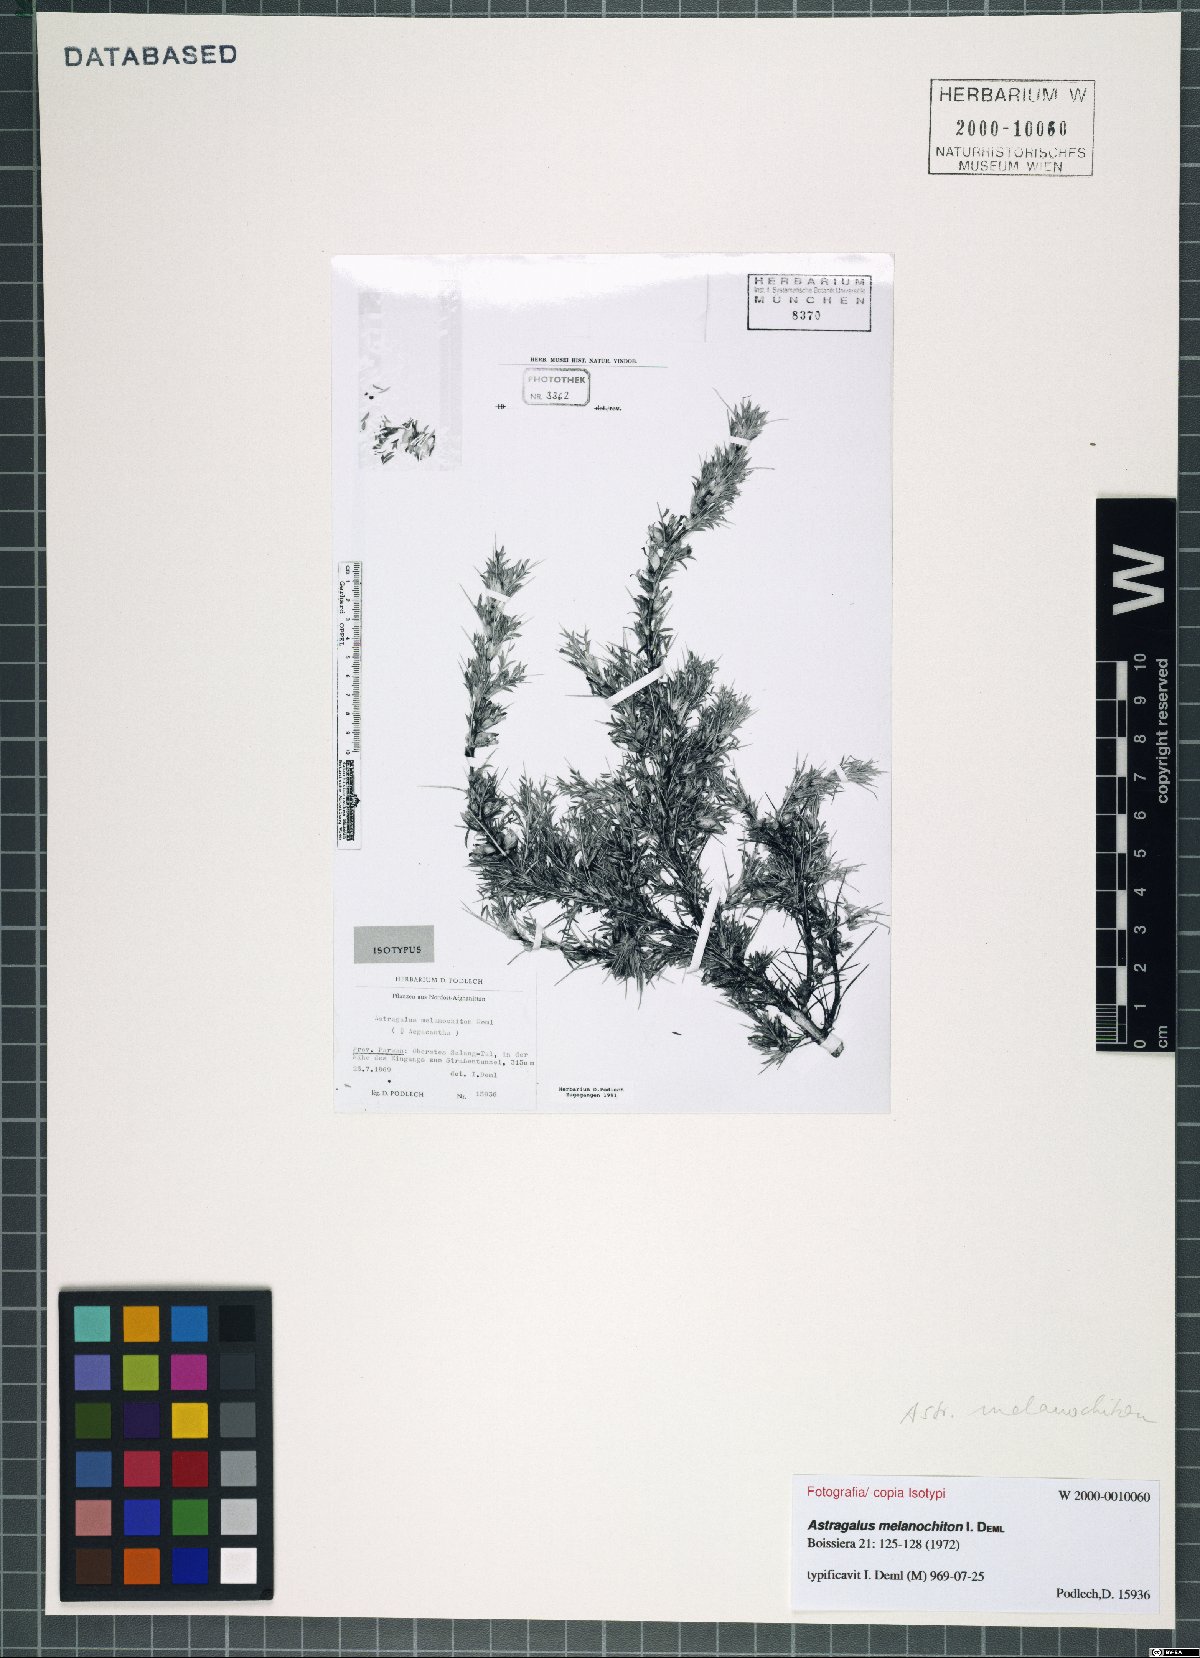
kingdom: Plantae
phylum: Tracheophyta
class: Magnoliopsida
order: Fabales
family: Fabaceae
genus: Astragalus
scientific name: Astragalus melanochiton
